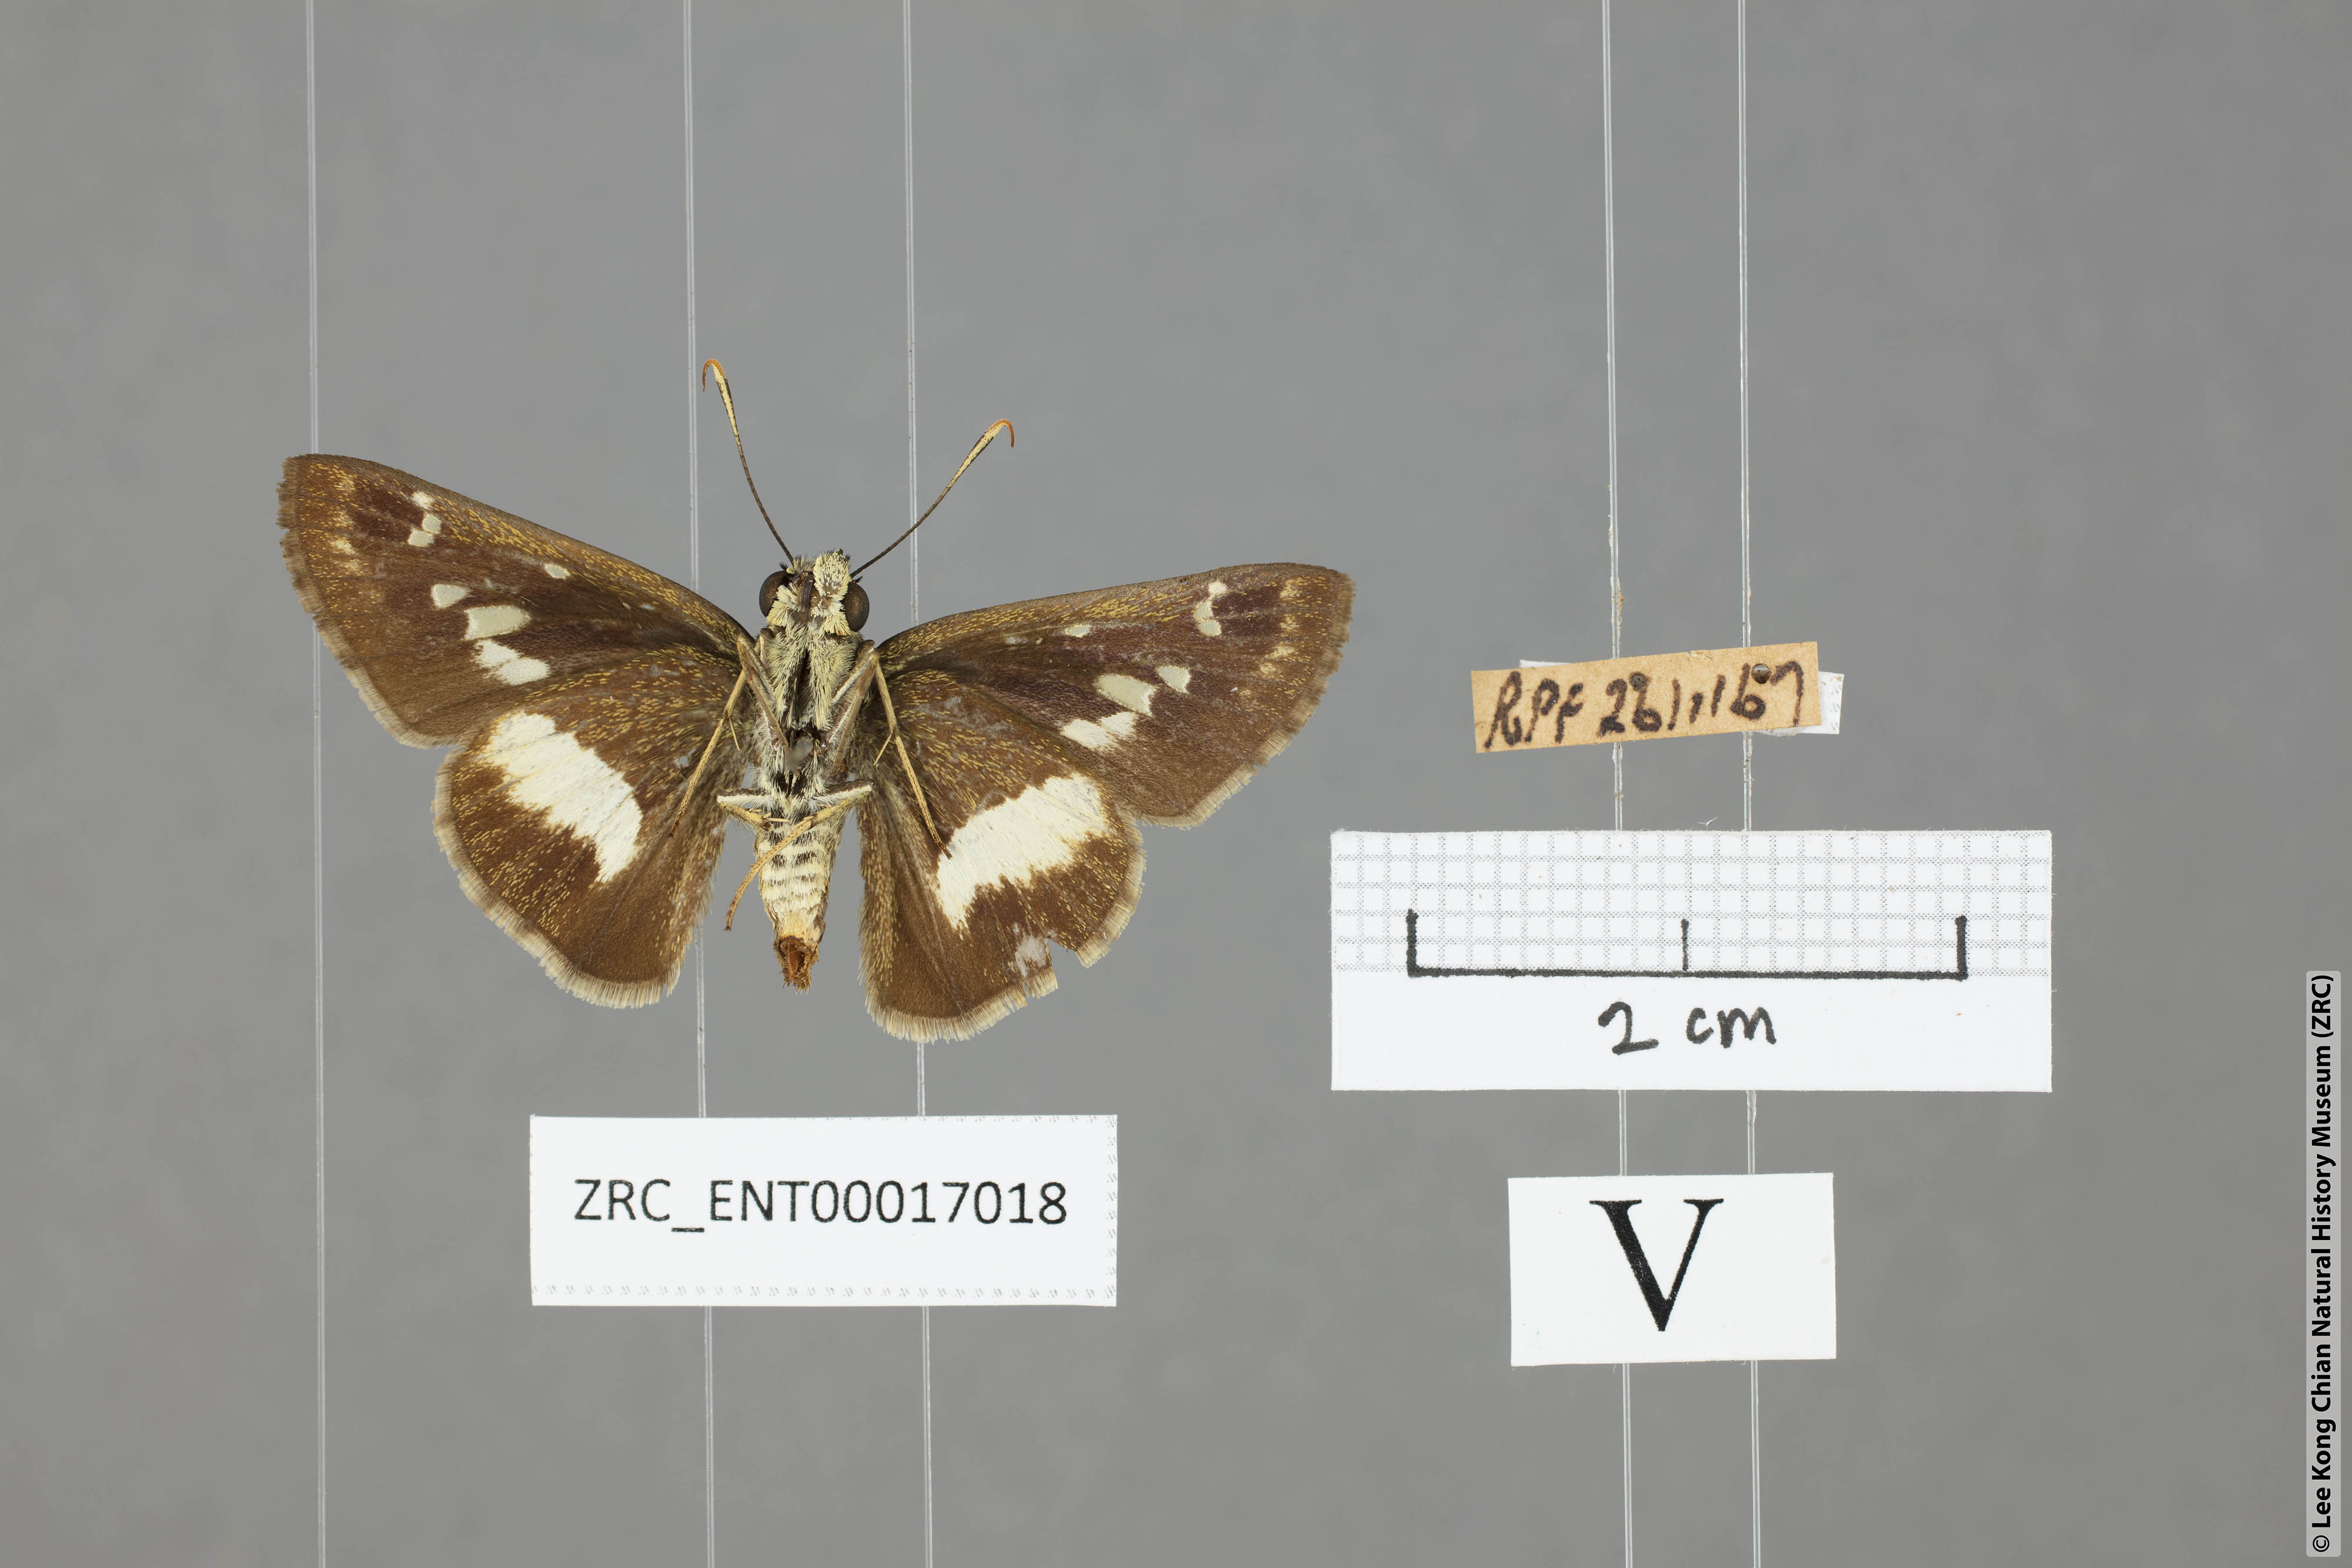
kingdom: Animalia
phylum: Arthropoda
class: Insecta
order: Lepidoptera
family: Hesperiidae
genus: Halpe
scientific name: Halpe
